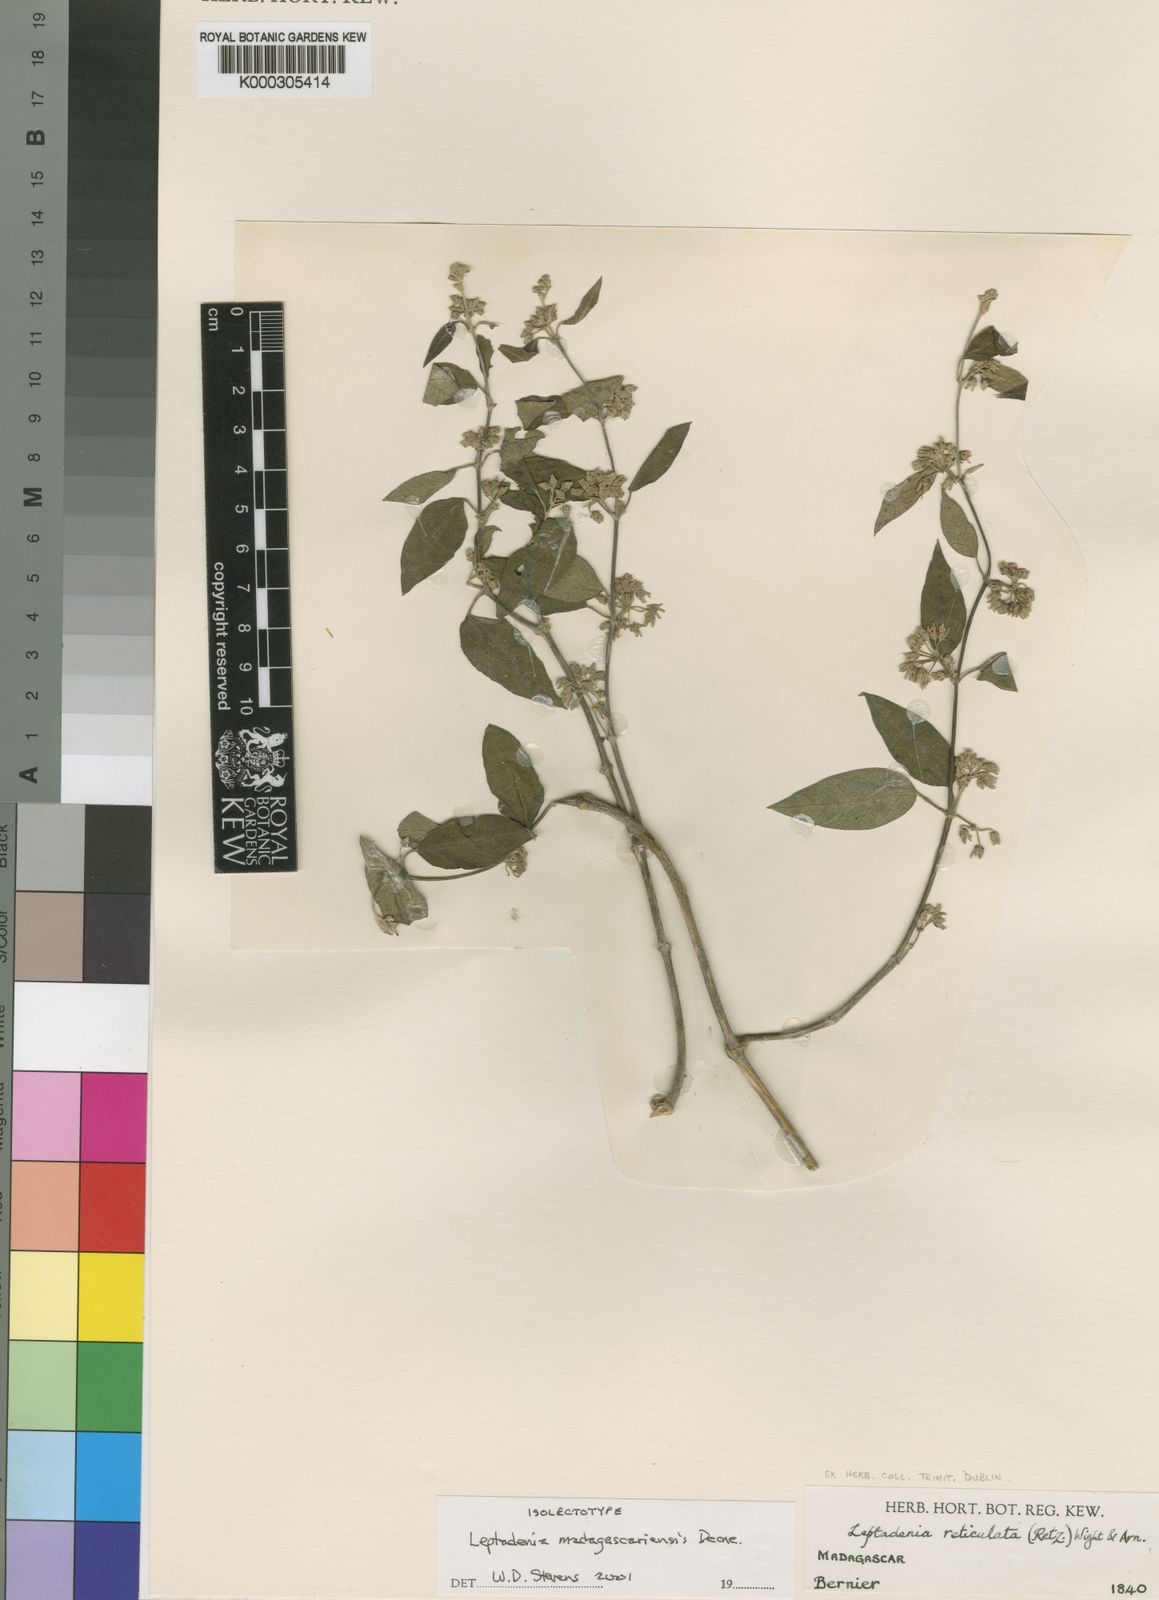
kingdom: Plantae
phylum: Tracheophyta
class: Magnoliopsida
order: Gentianales
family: Apocynaceae
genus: Leptadenia
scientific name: Leptadenia madagascariensis
